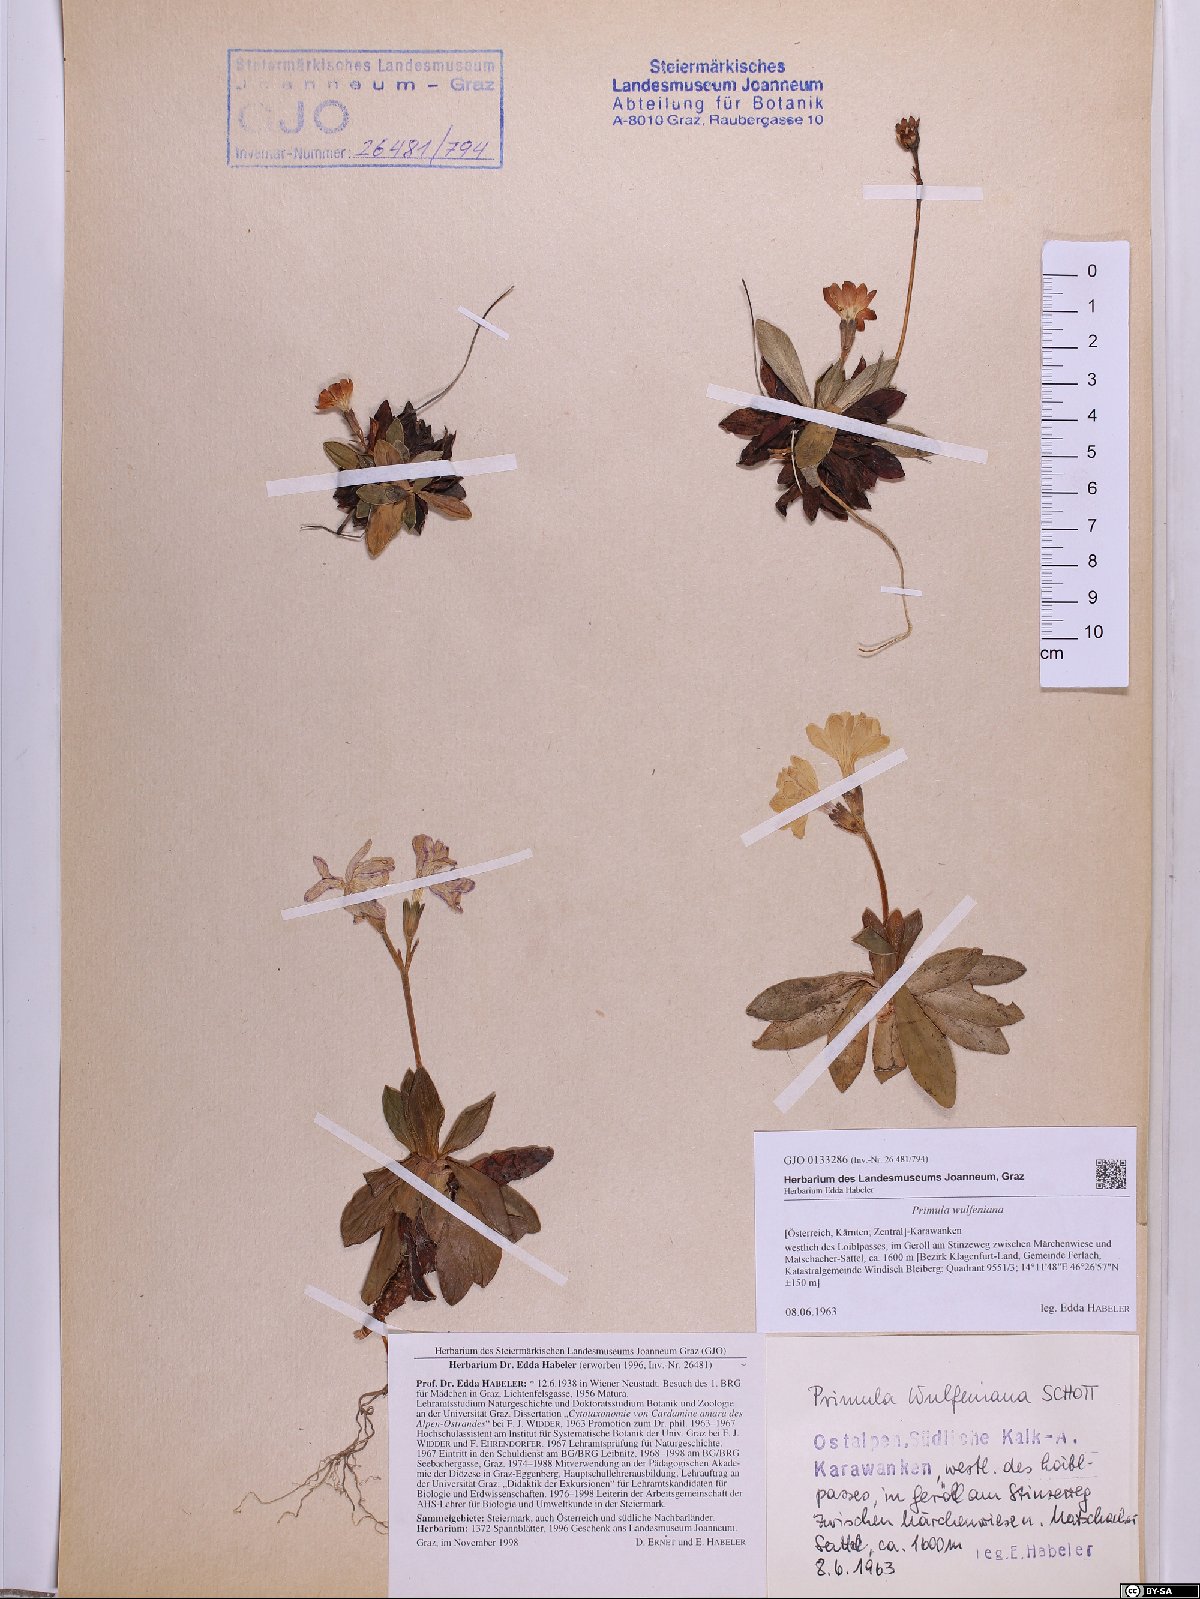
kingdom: Plantae
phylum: Tracheophyta
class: Magnoliopsida
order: Ericales
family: Primulaceae
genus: Primula
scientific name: Primula wulfeniana
